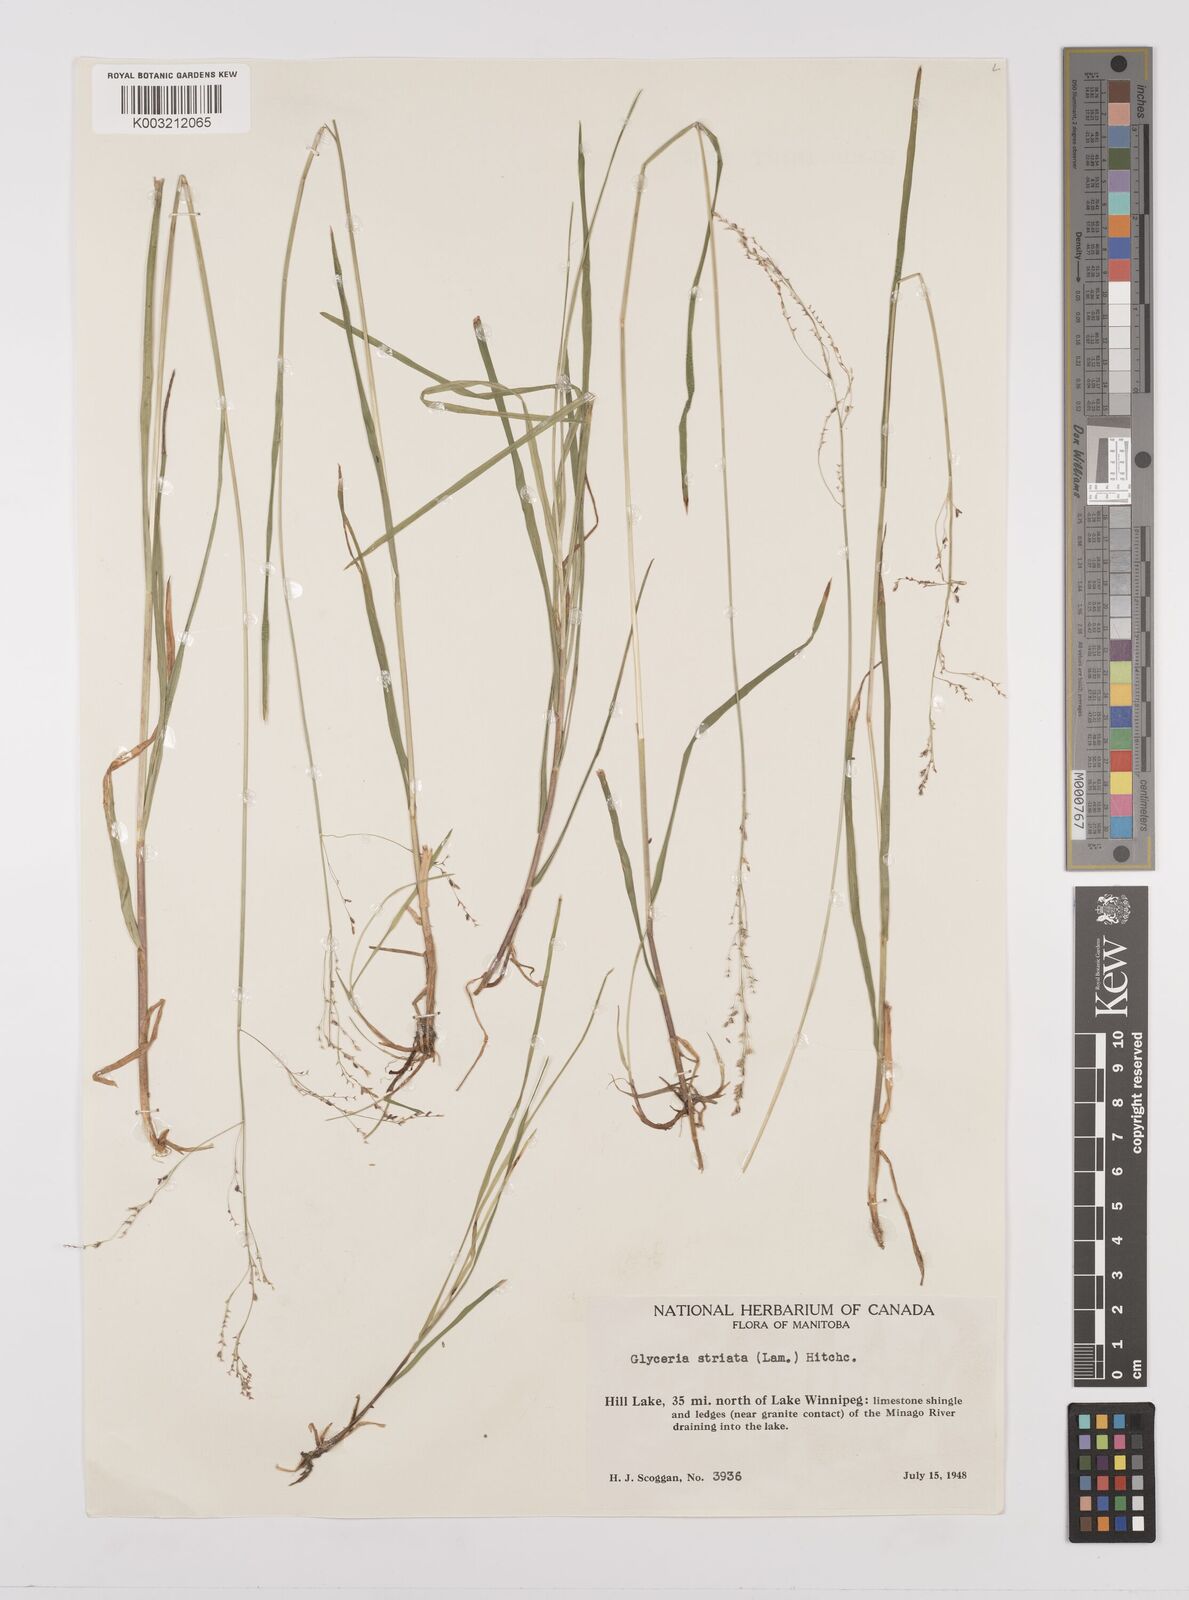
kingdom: Plantae
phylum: Tracheophyta
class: Liliopsida
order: Poales
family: Poaceae
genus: Glyceria
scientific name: Glyceria striata
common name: Fowl manna grass
